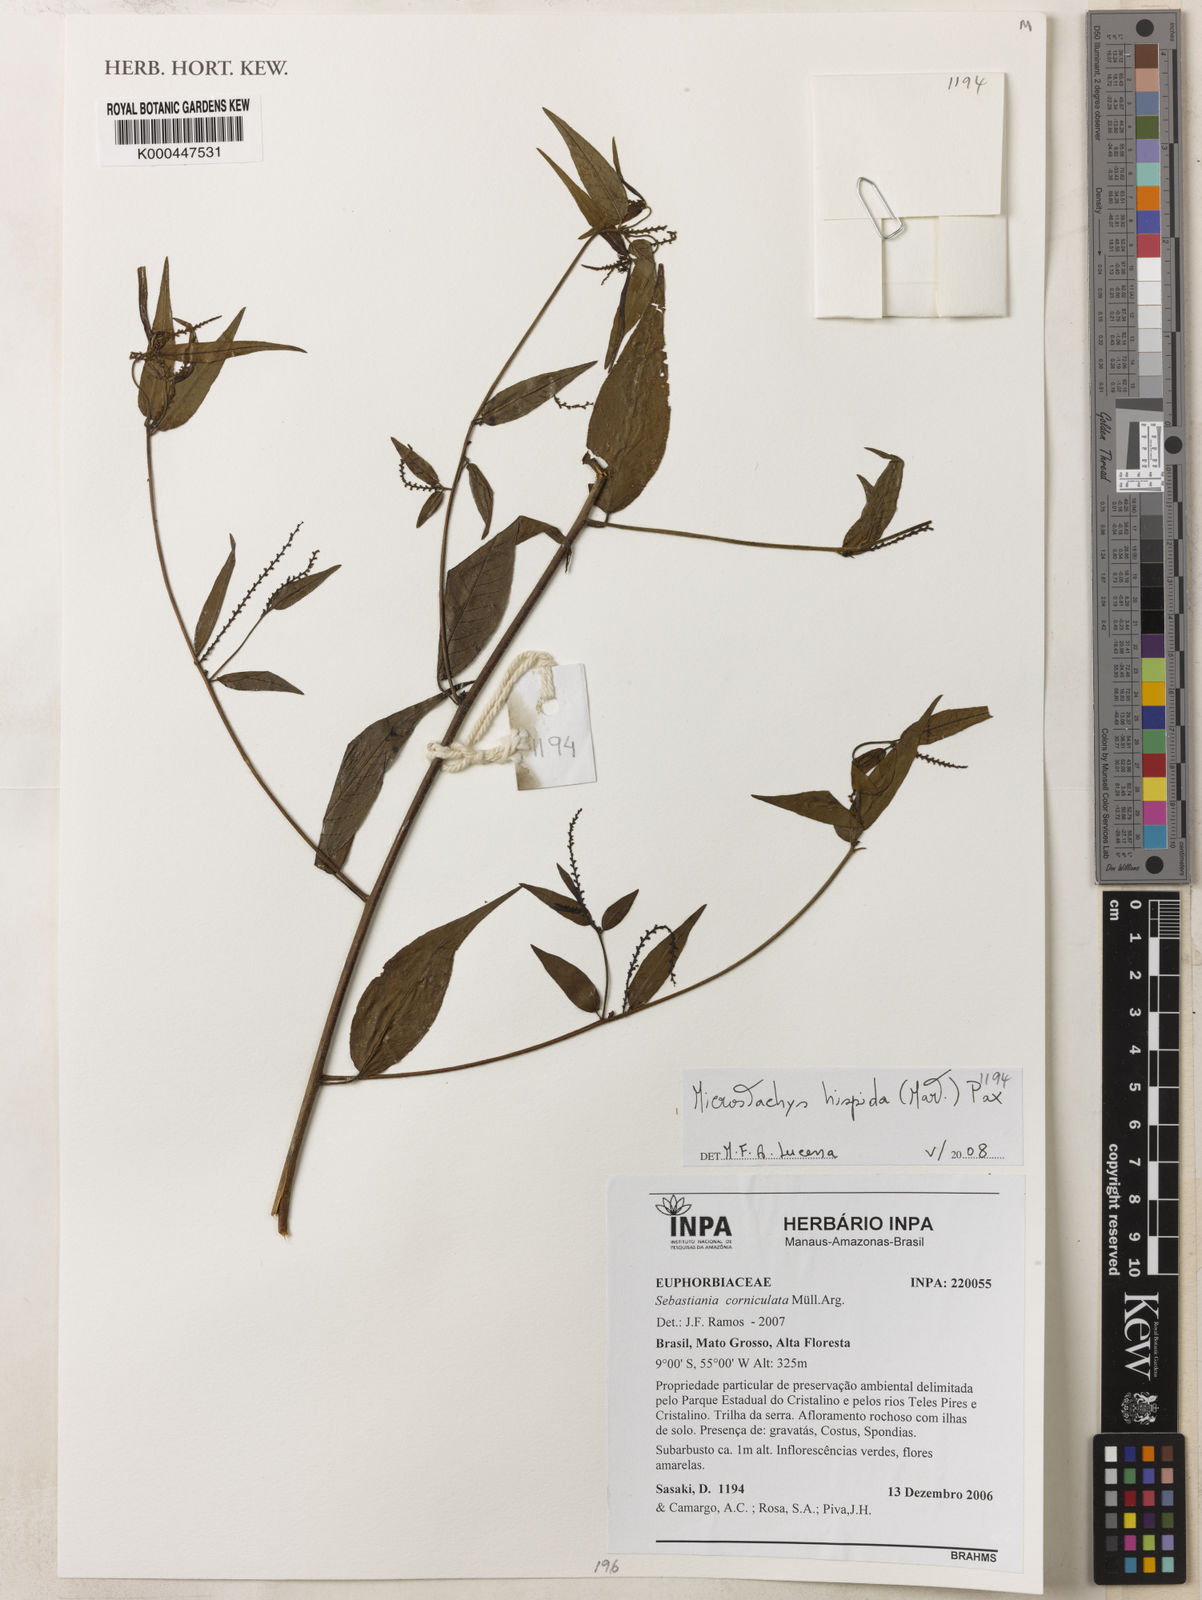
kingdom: Plantae
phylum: Tracheophyta
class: Magnoliopsida
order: Malpighiales
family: Euphorbiaceae
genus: Microstachys
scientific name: Microstachys
